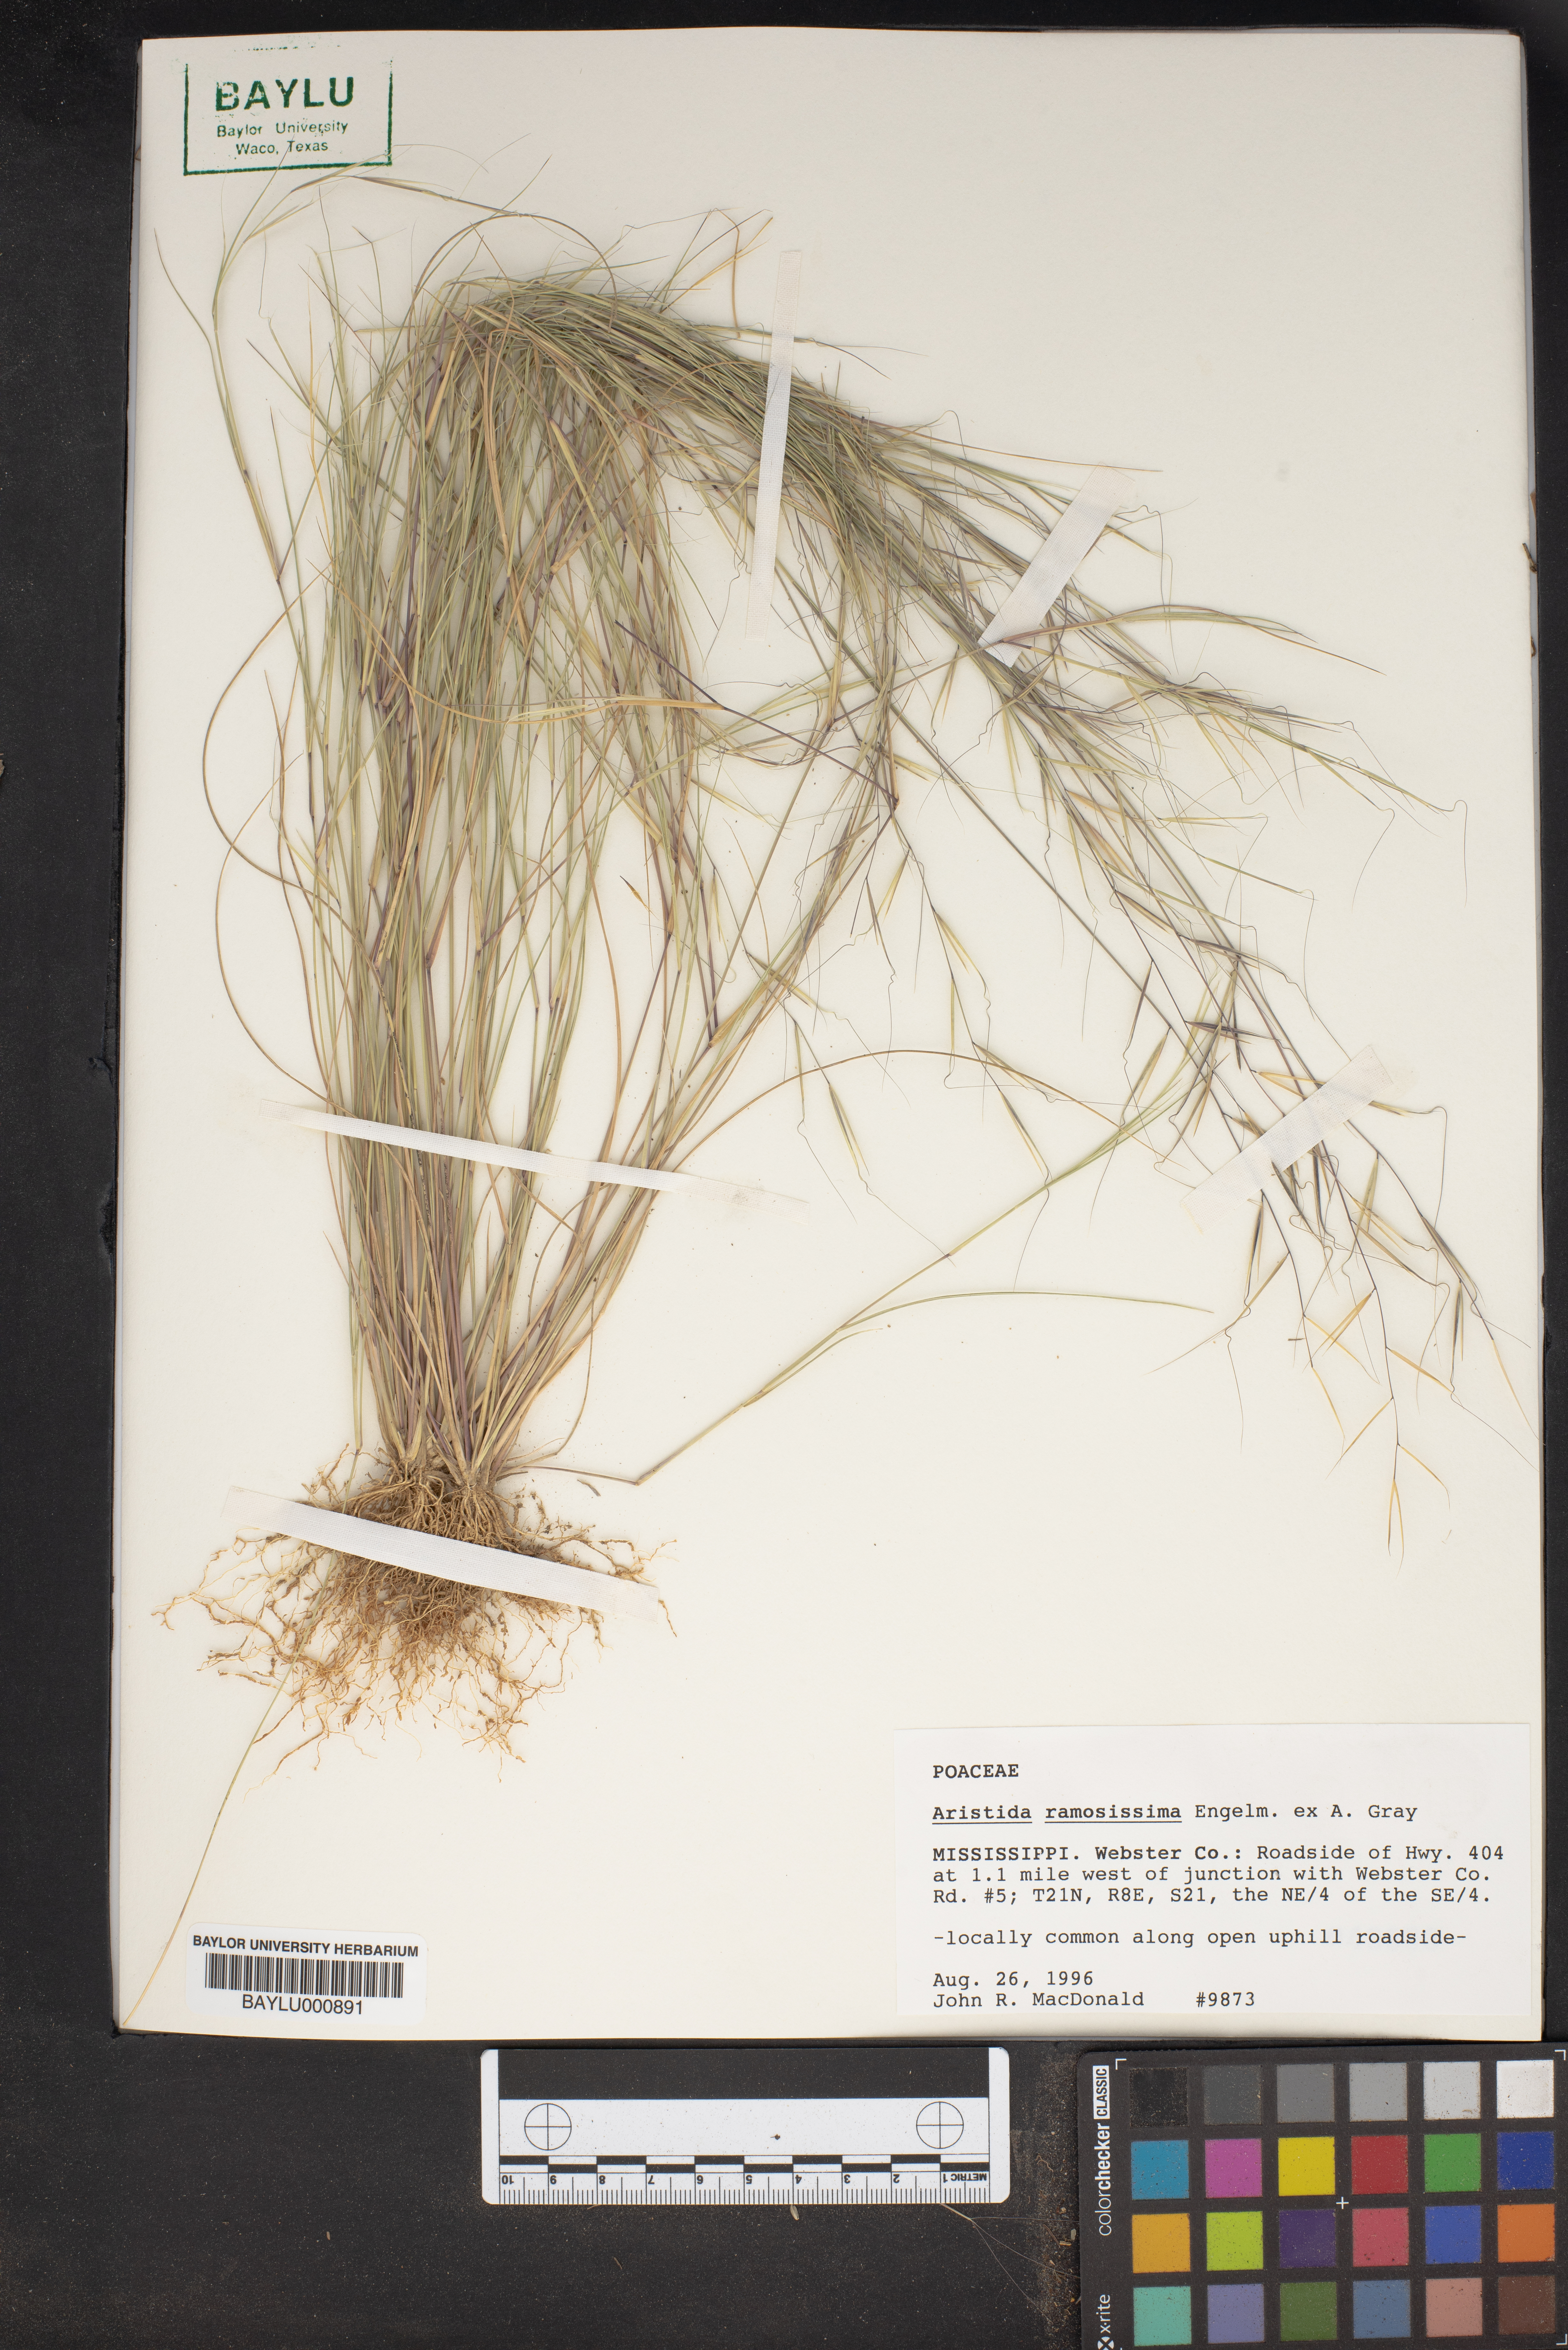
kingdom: Plantae
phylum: Tracheophyta
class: Liliopsida
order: Poales
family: Poaceae
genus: Aristida
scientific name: Aristida ramosissima
